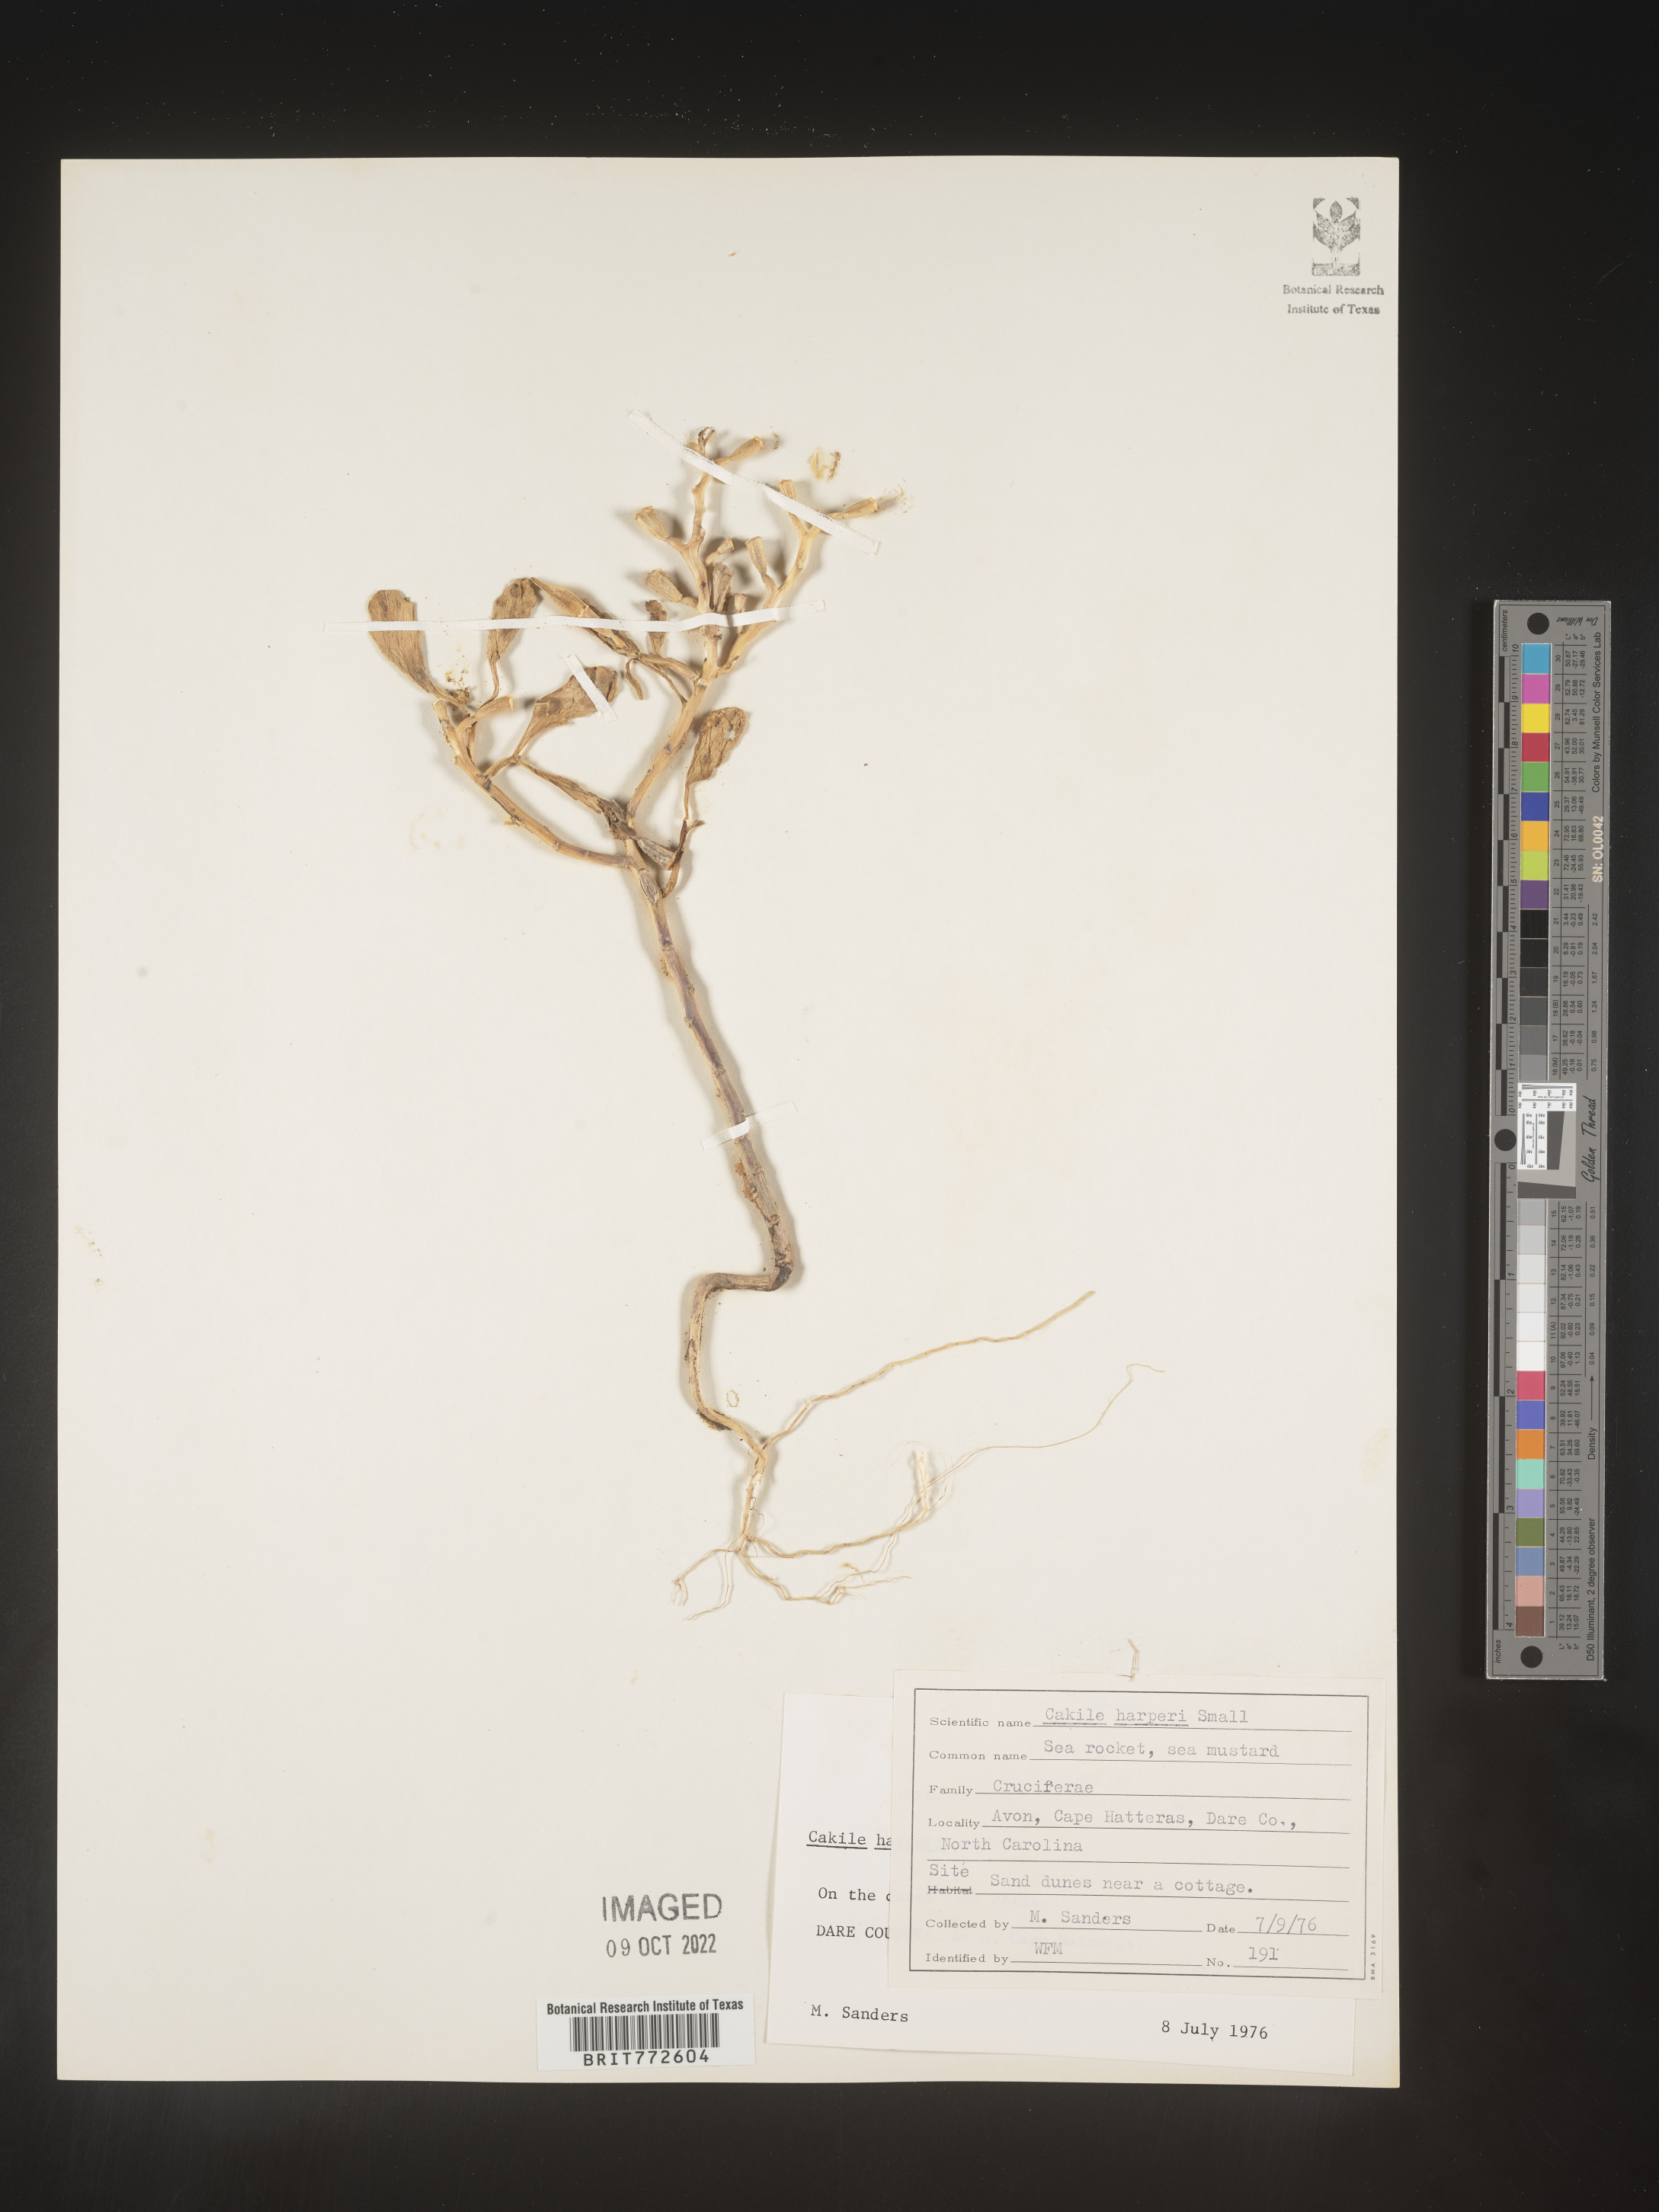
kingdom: Plantae
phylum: Tracheophyta
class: Magnoliopsida
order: Brassicales
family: Brassicaceae
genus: Cakile
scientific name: Cakile edentula
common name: American sea rocket
